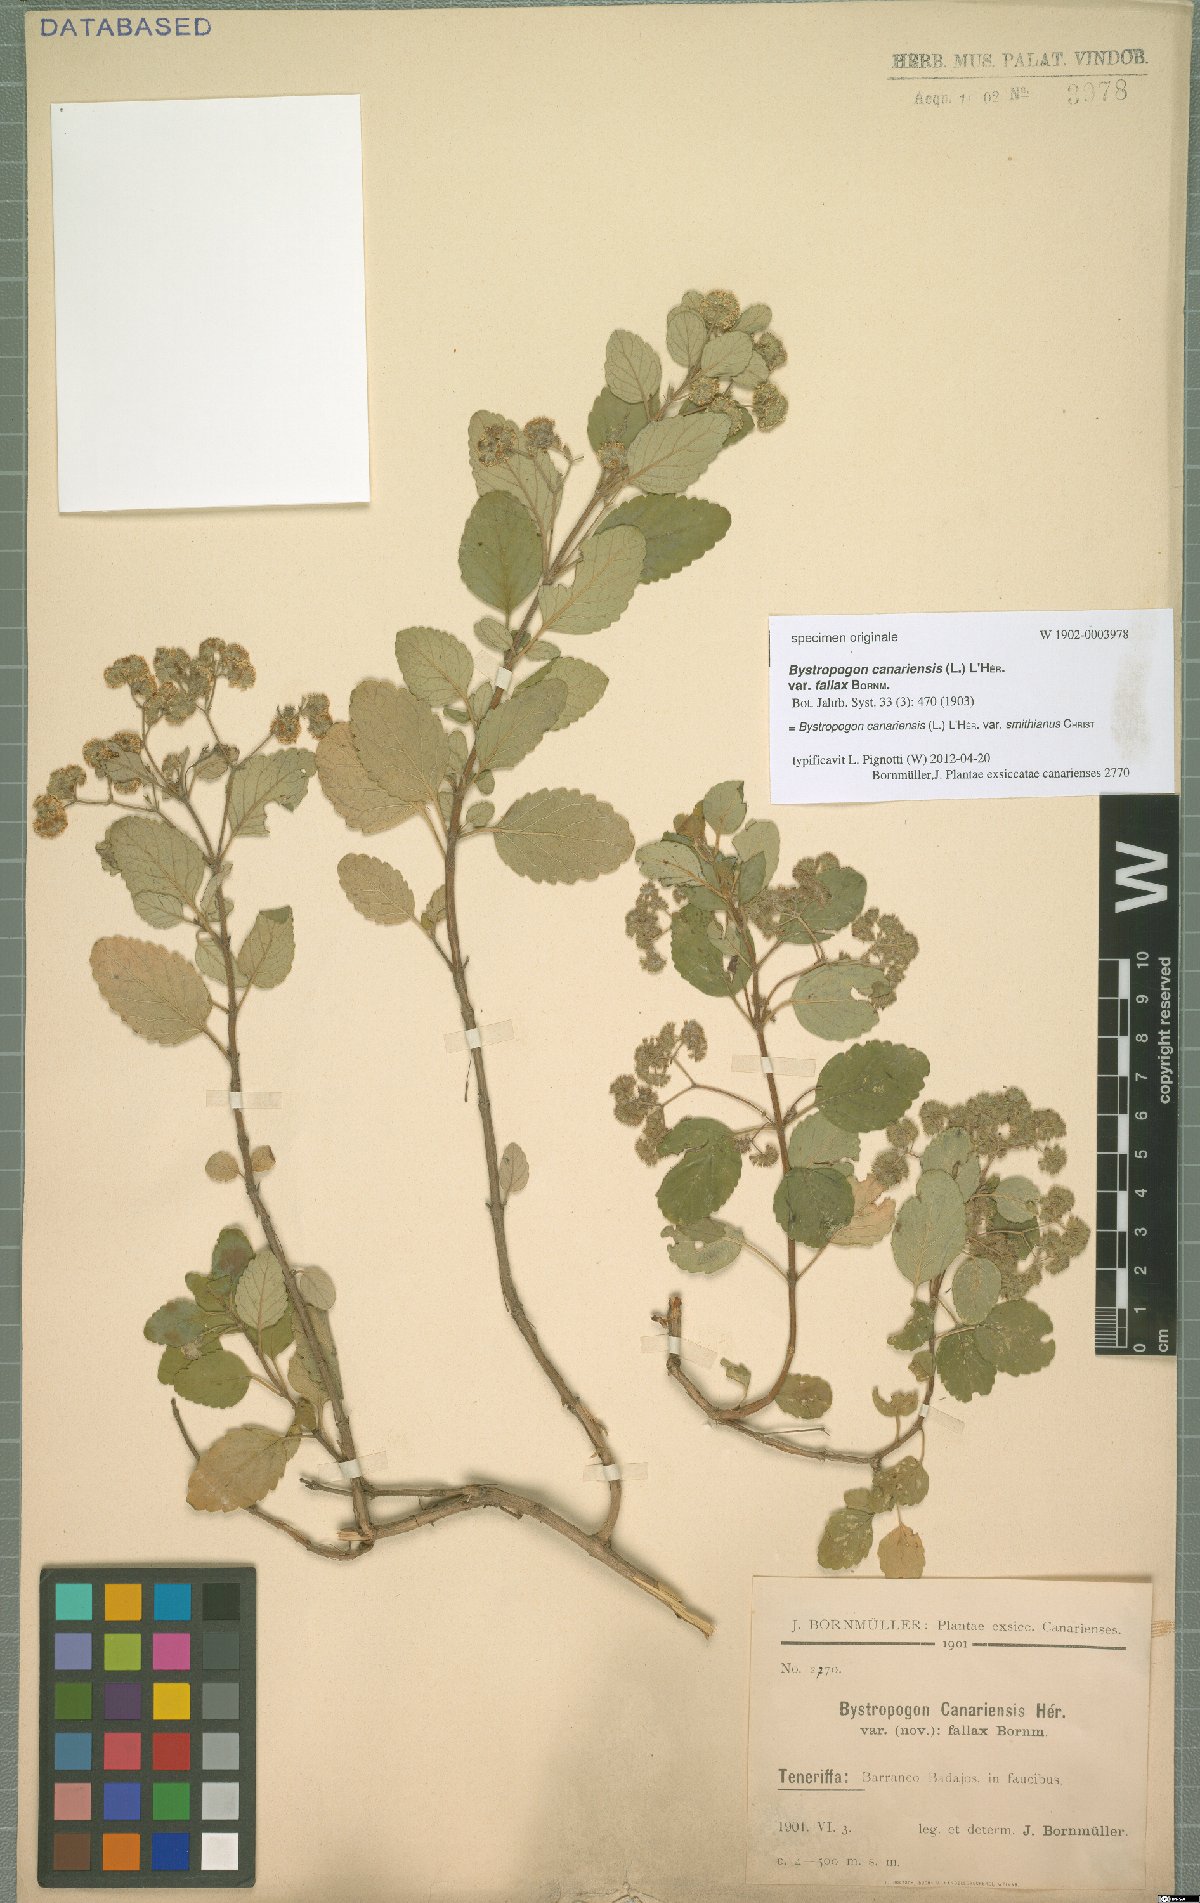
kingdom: Plantae
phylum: Tracheophyta
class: Magnoliopsida
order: Lamiales
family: Lamiaceae
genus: Bystropogon
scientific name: Bystropogon canariensis
